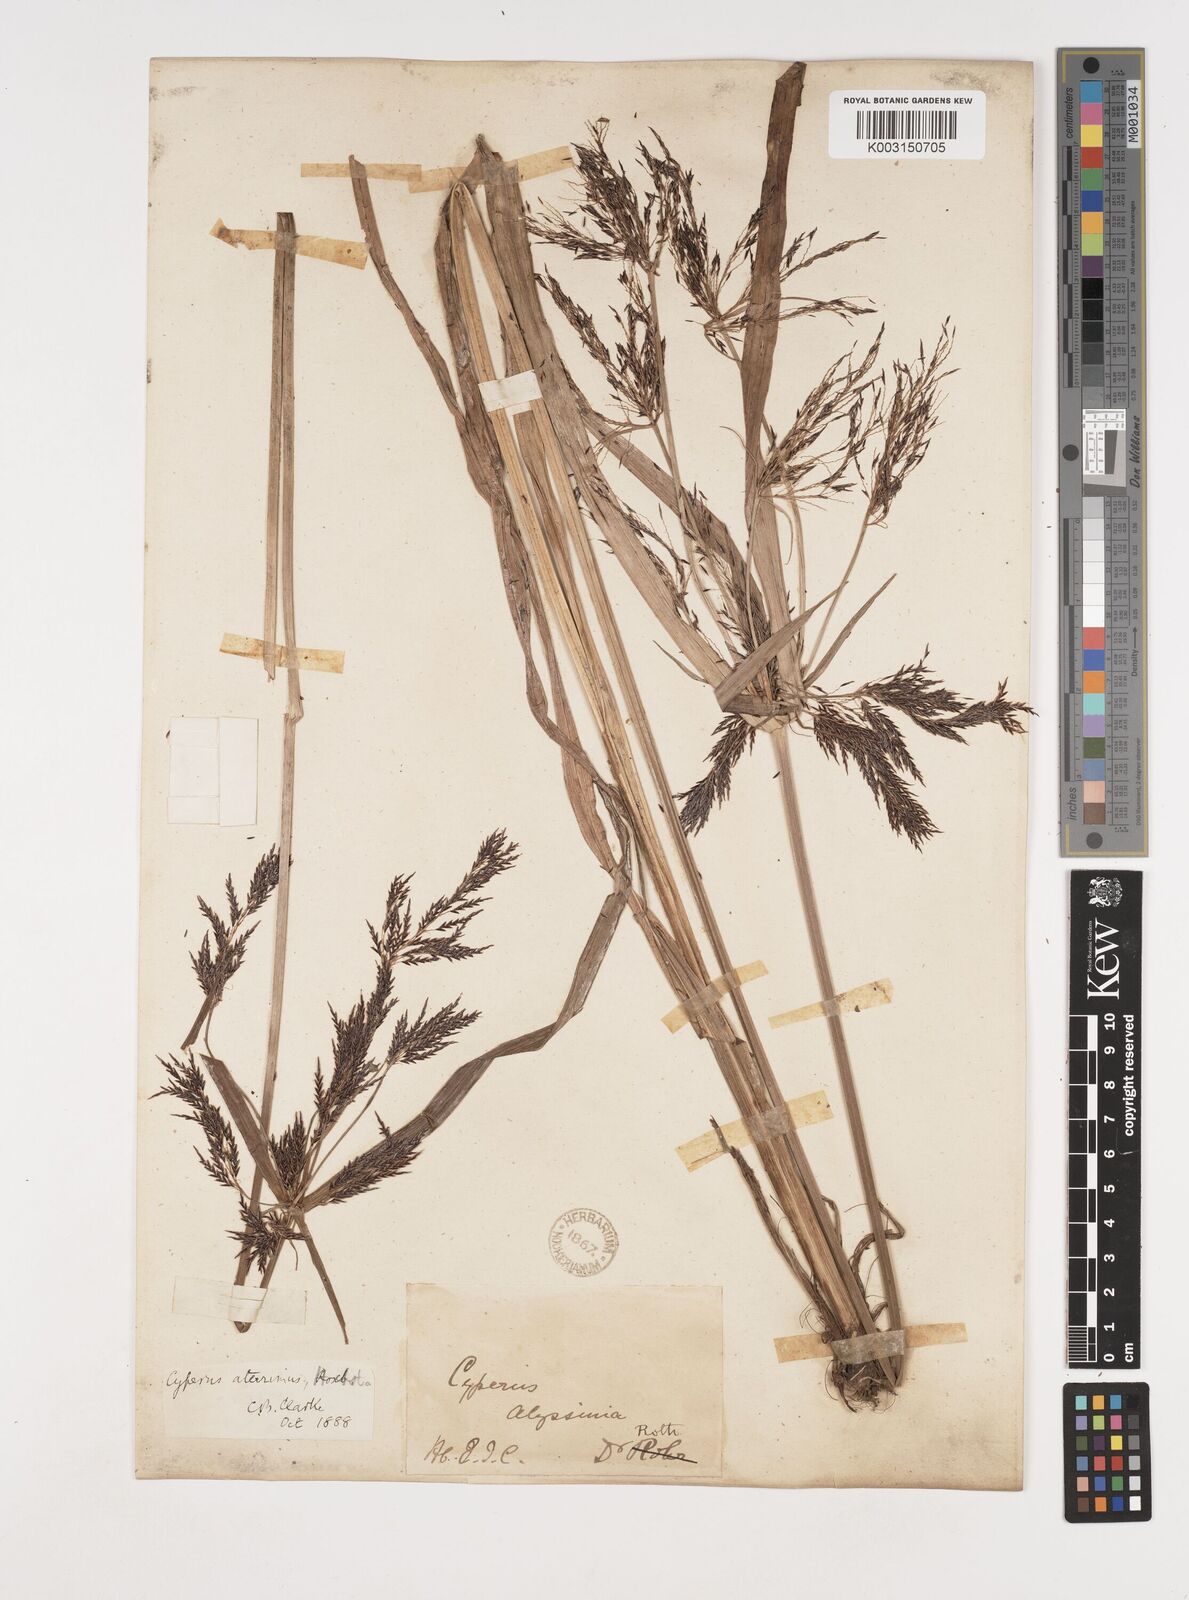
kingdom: Plantae
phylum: Tracheophyta
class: Liliopsida
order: Poales
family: Cyperaceae
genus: Cyperus
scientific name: Cyperus aterrimus
